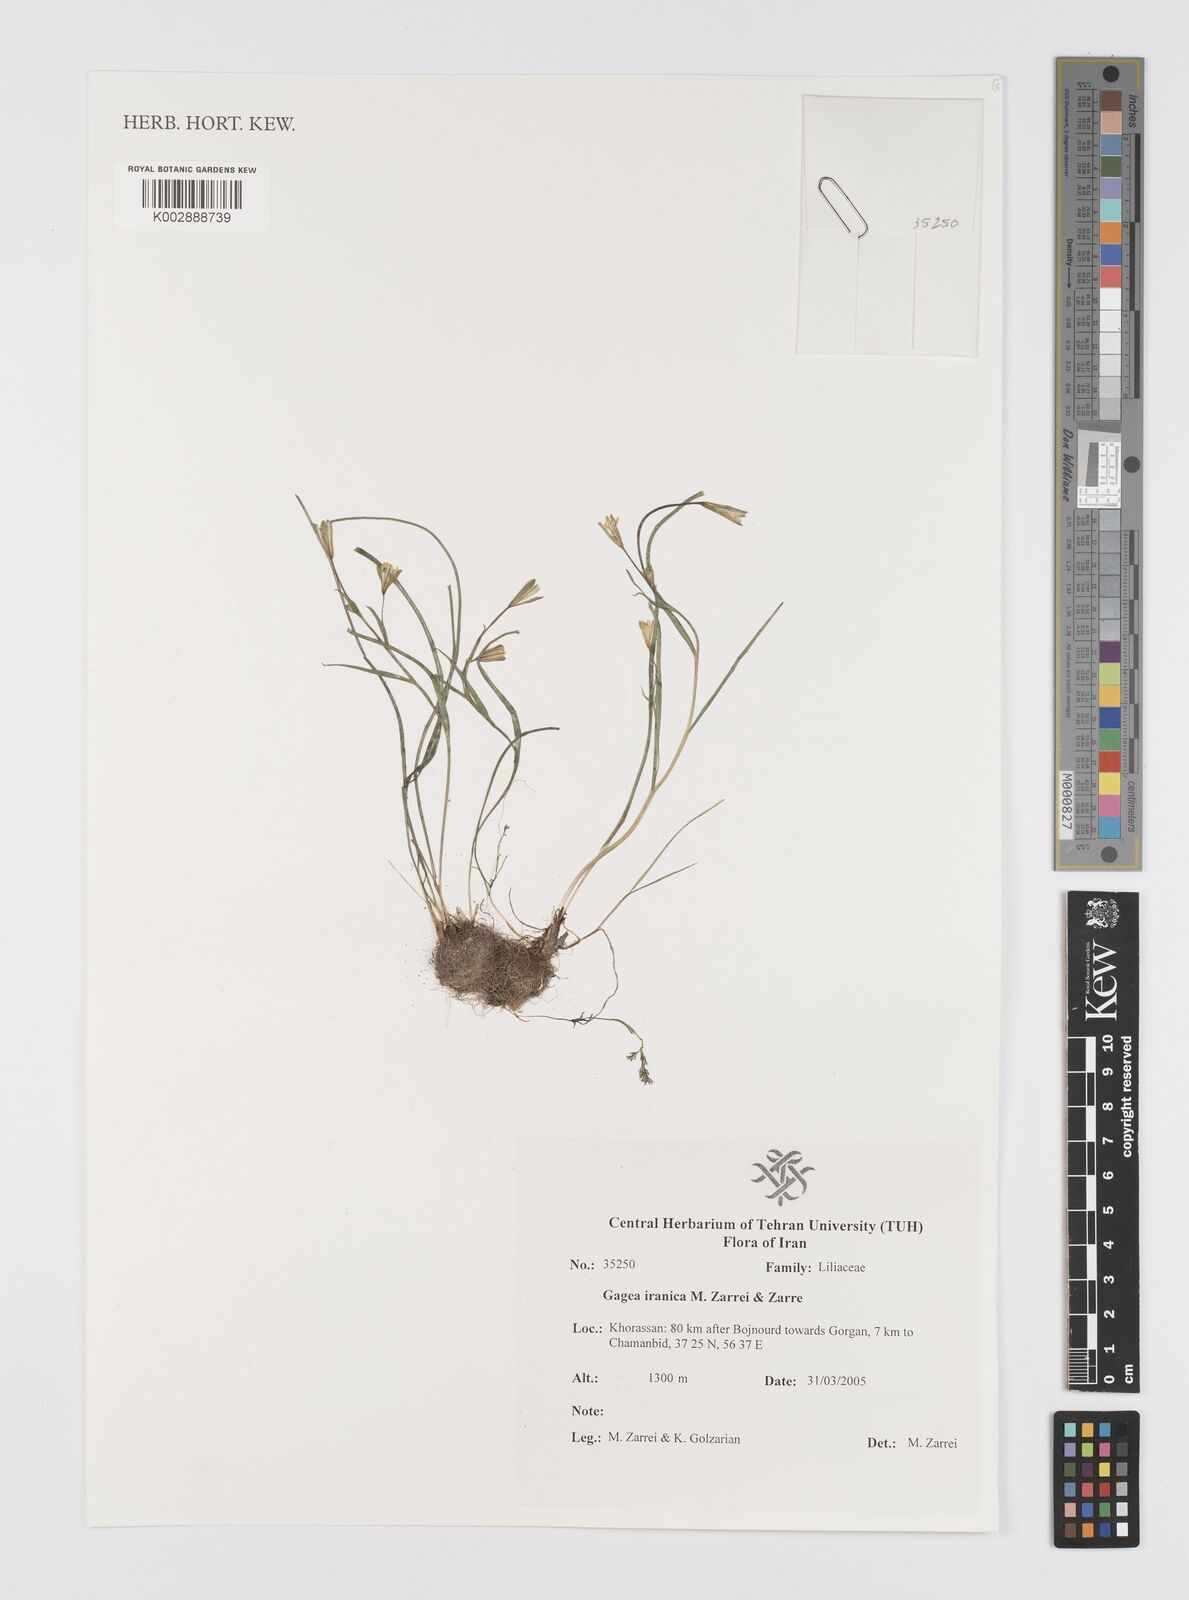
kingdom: Plantae
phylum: Tracheophyta
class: Liliopsida
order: Liliales
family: Liliaceae
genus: Gagea
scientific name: Gagea iranica
